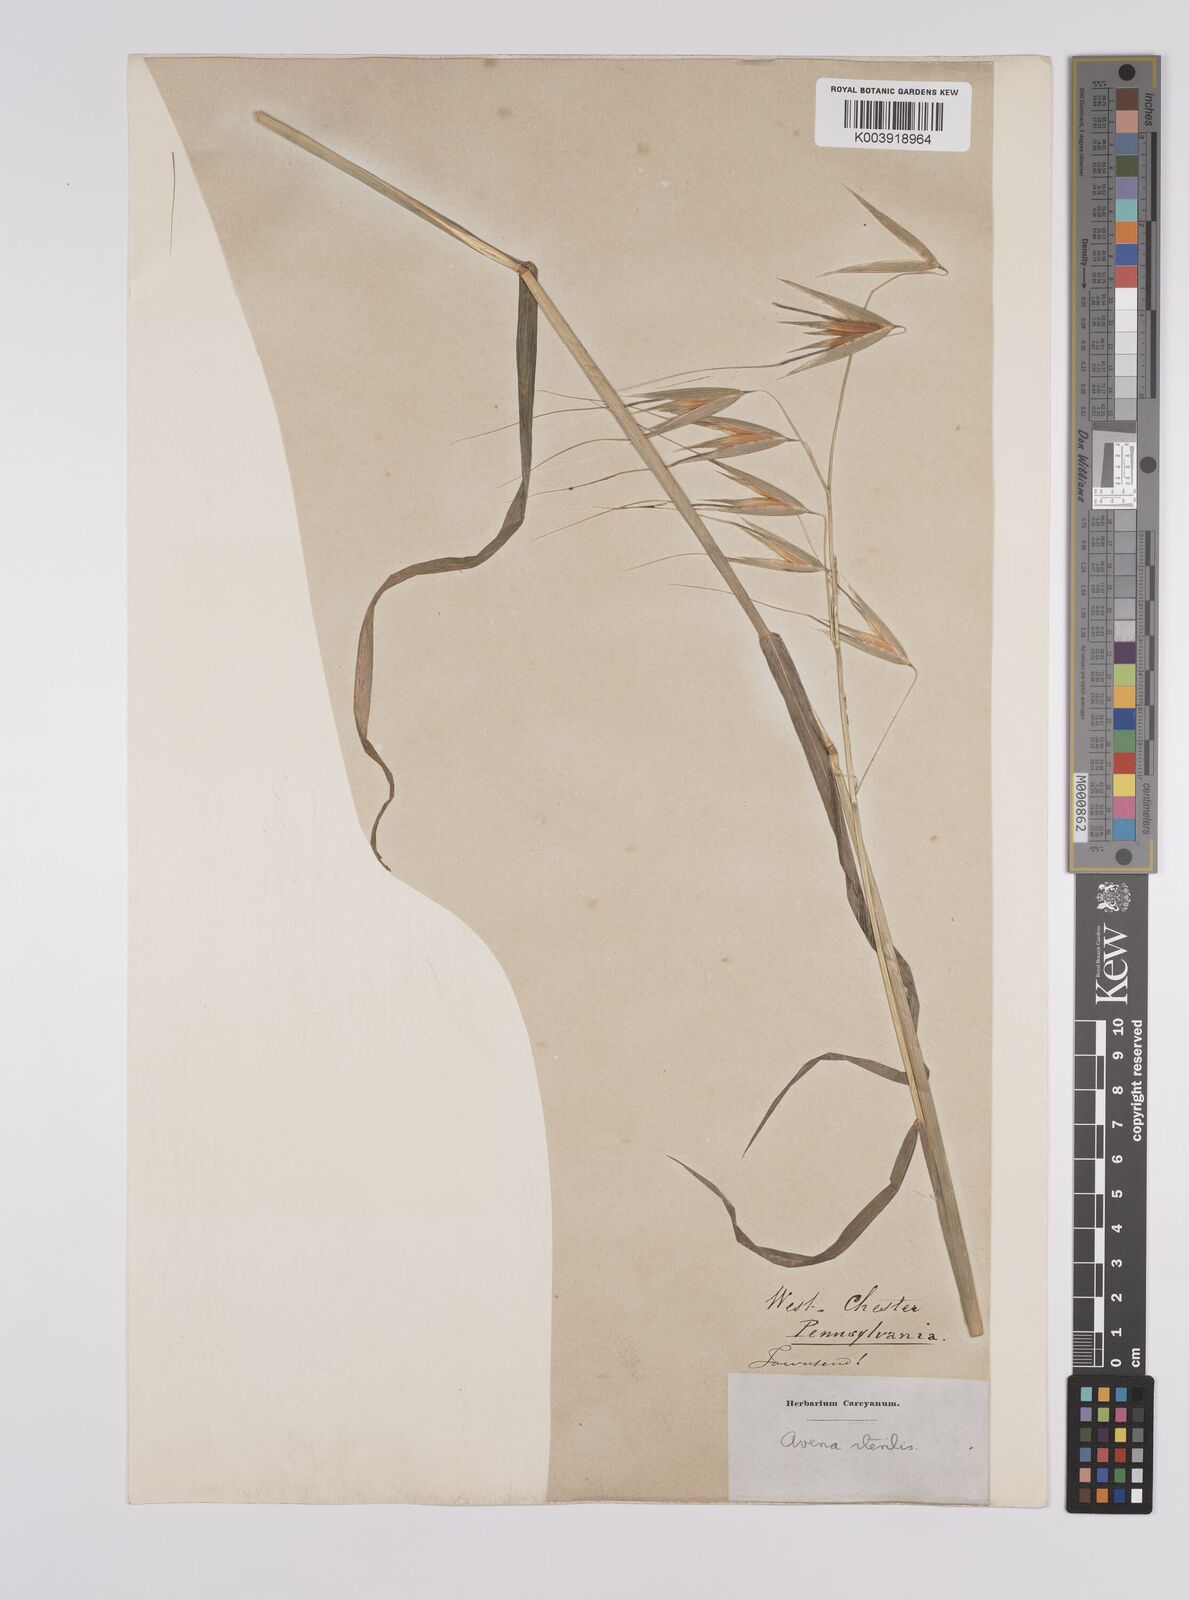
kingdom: Plantae
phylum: Tracheophyta
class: Liliopsida
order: Poales
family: Poaceae
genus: Avena
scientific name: Avena sterilis
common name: Animated oat
